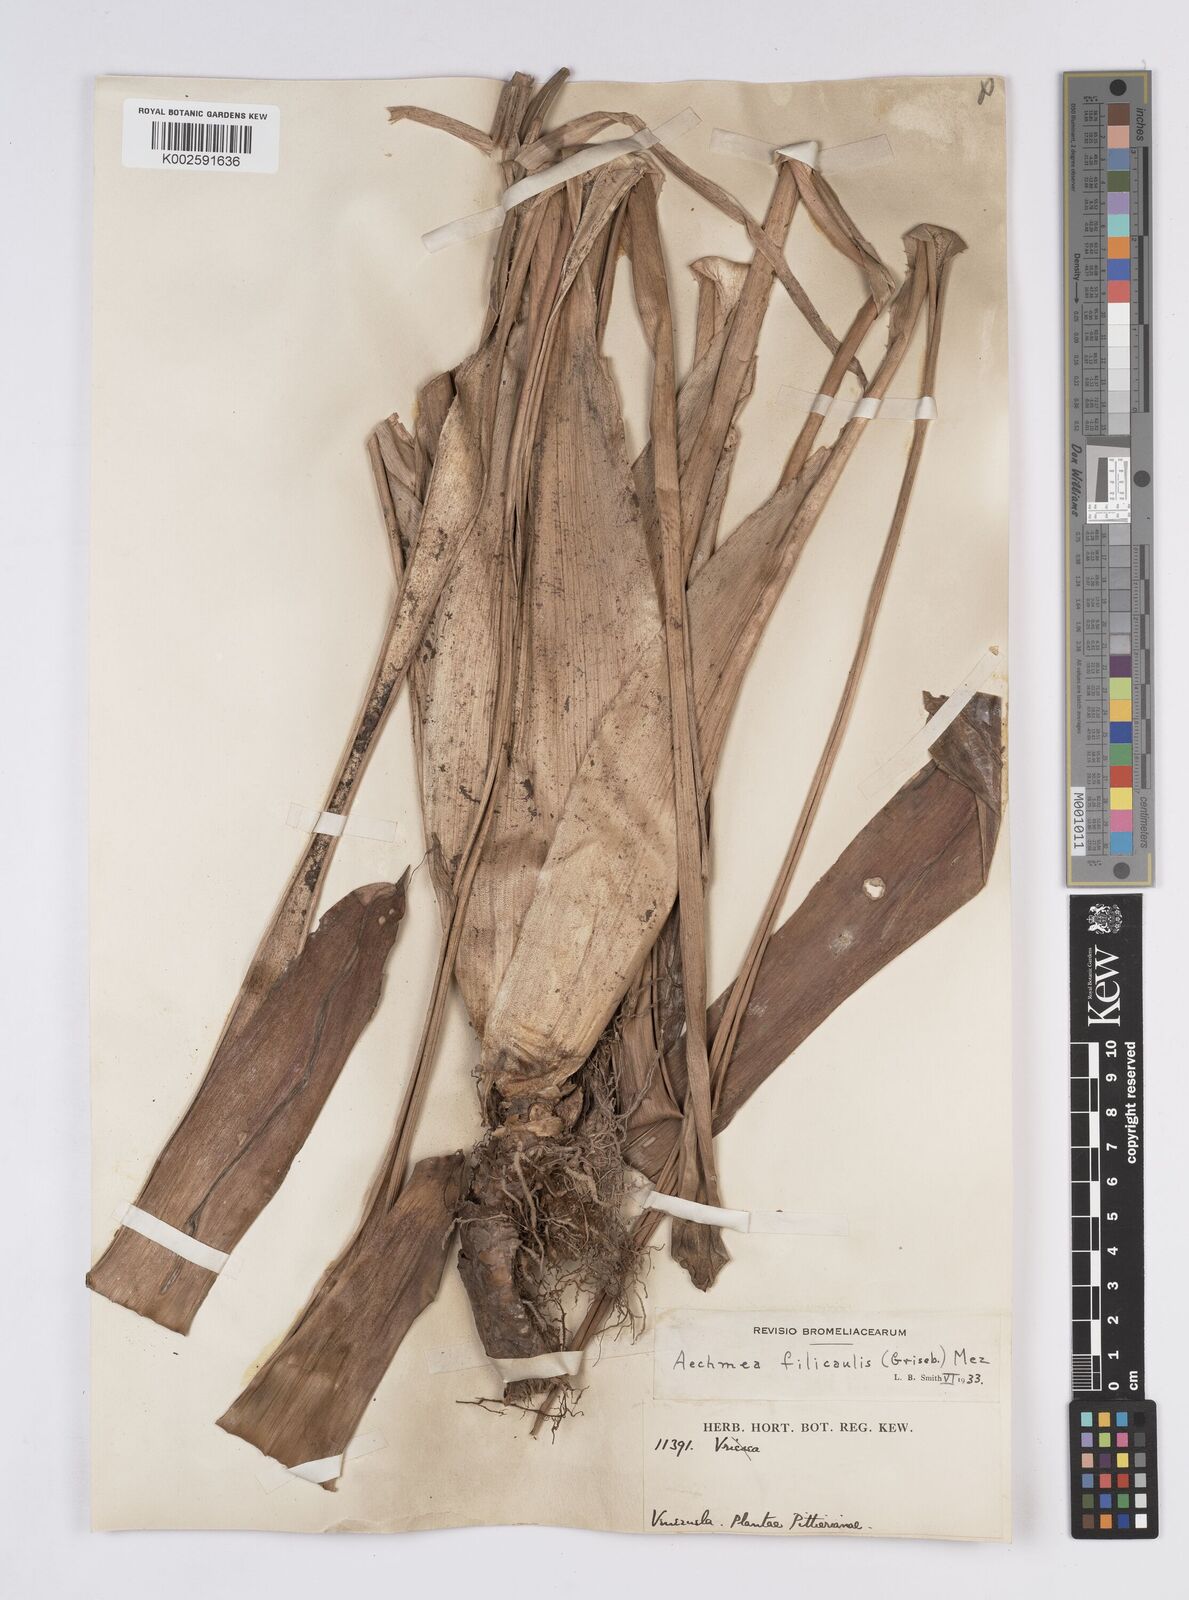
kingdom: Plantae
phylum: Tracheophyta
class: Liliopsida
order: Poales
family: Bromeliaceae
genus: Aechmea
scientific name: Aechmea filicaulis
